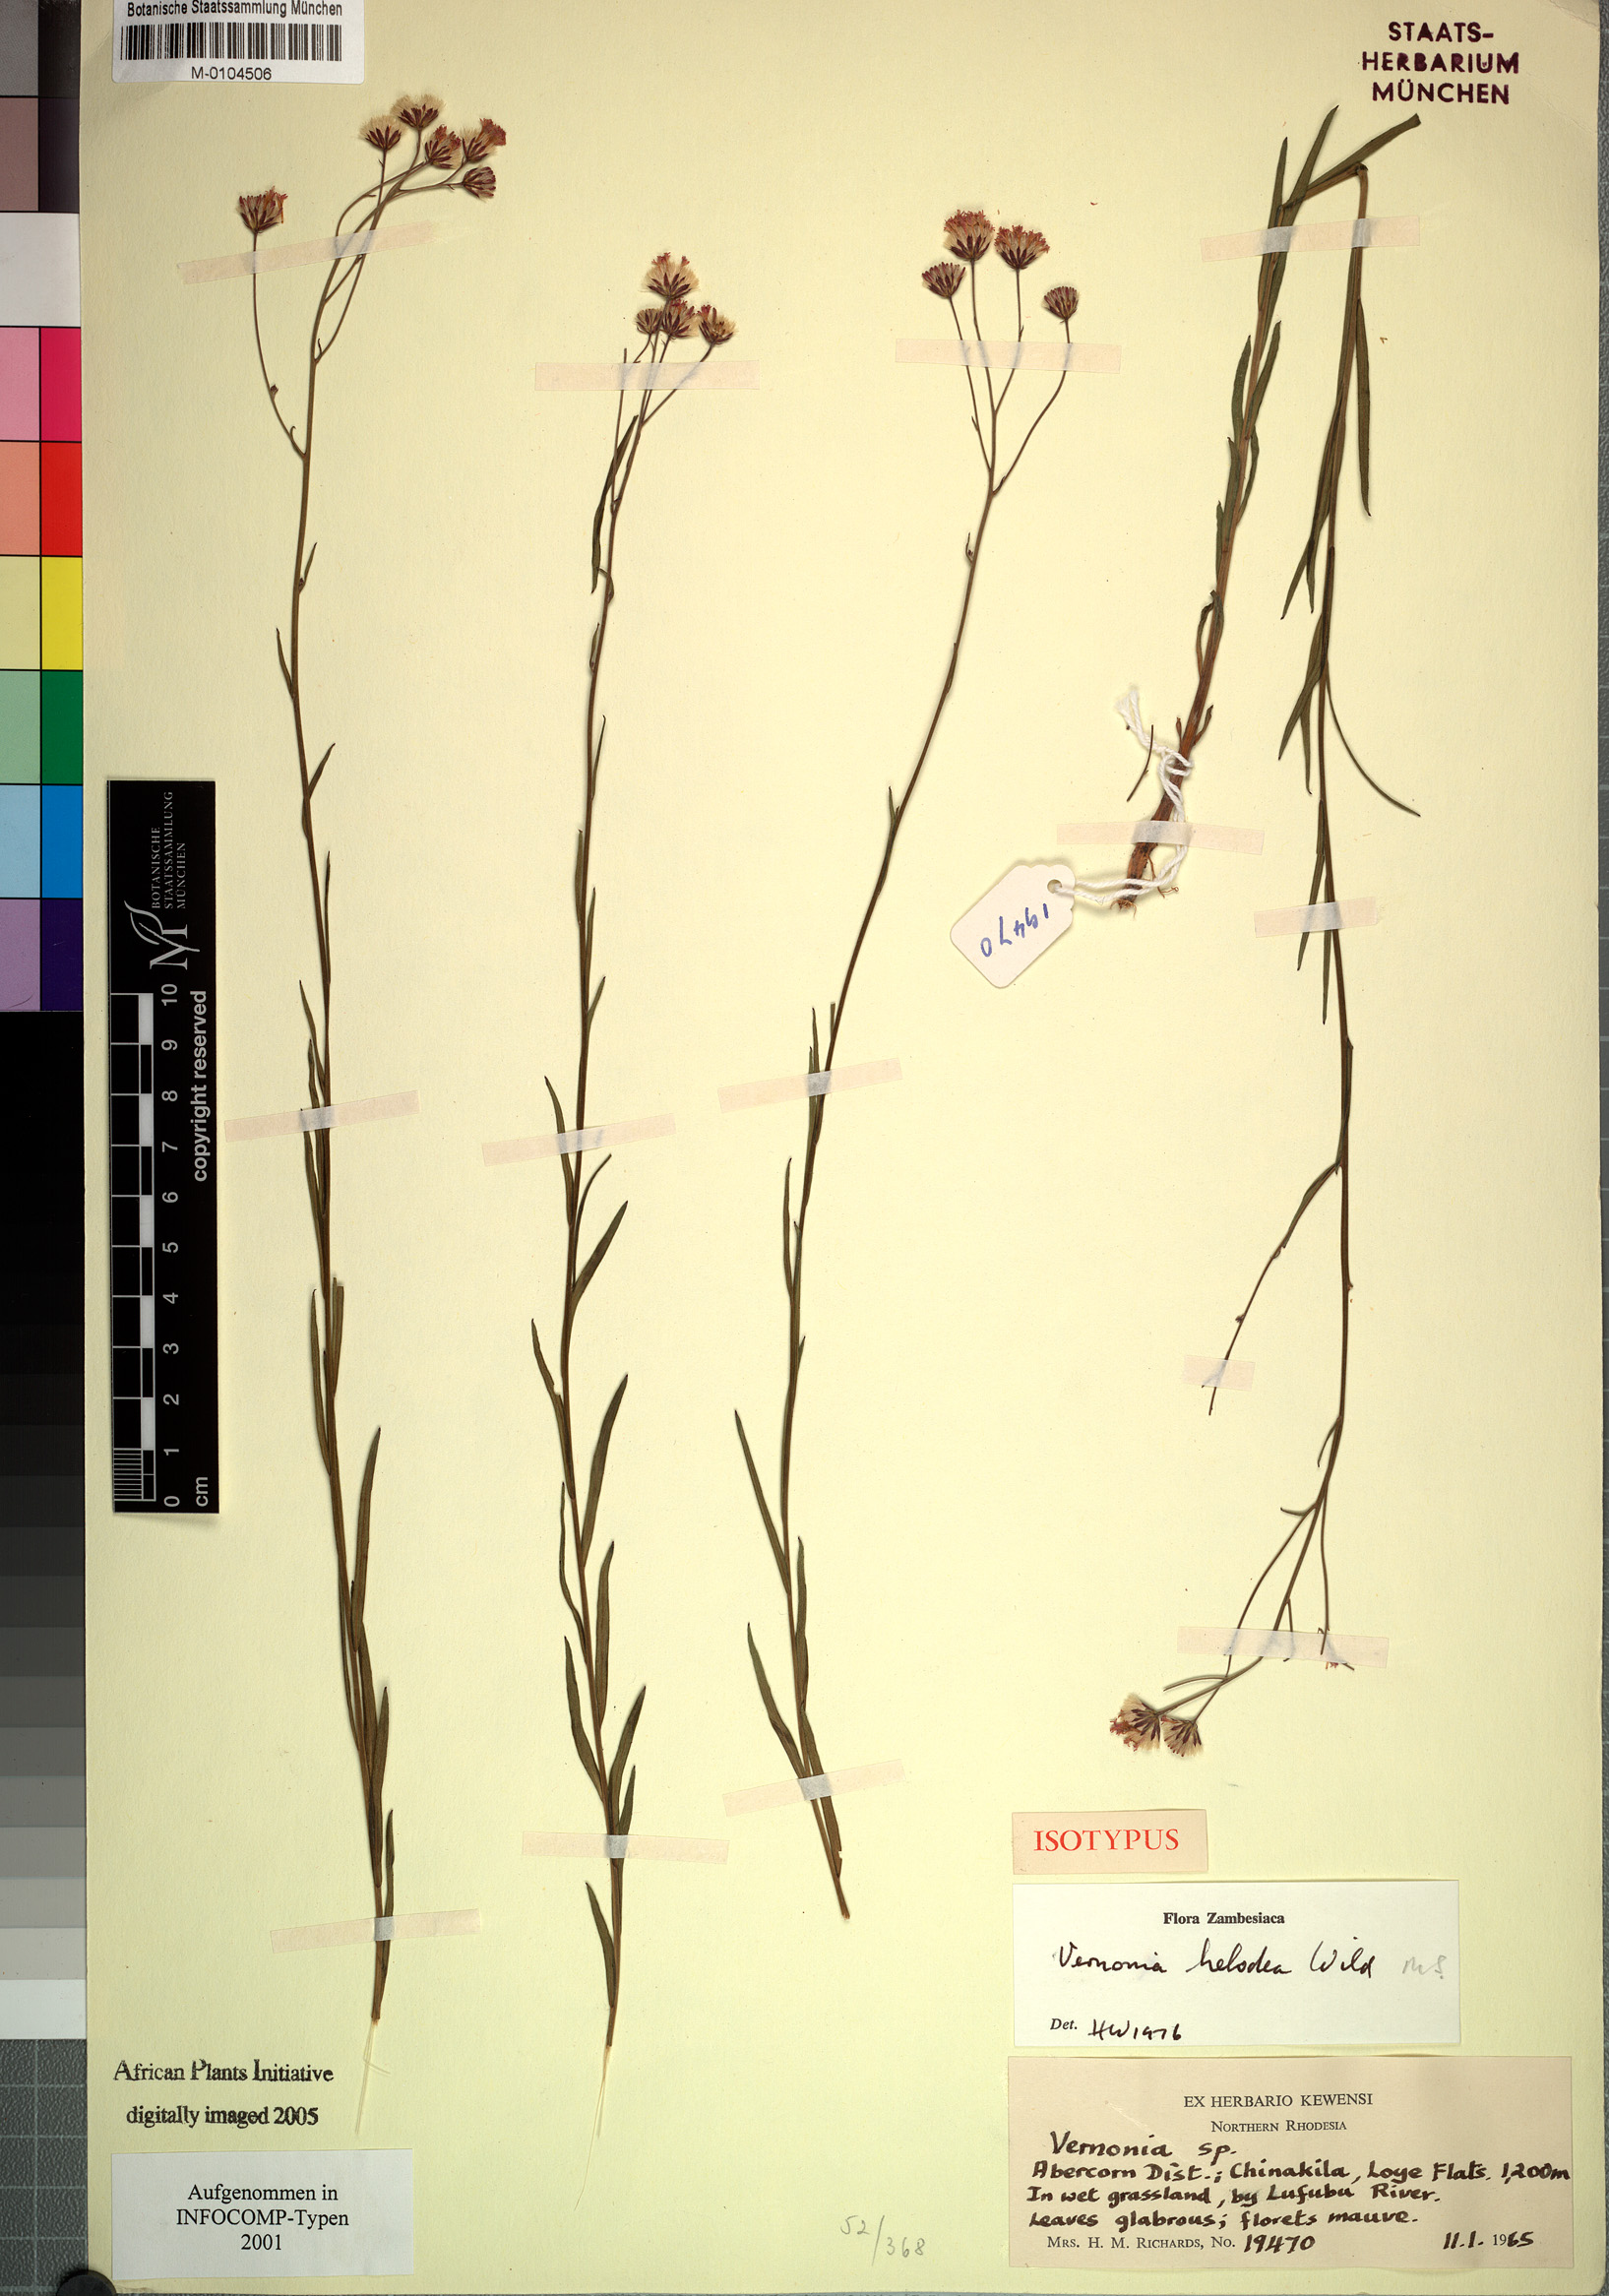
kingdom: Plantae
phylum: Tracheophyta
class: Magnoliopsida
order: Asterales
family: Asteraceae
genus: Vernonia
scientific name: Vernonia helodea
